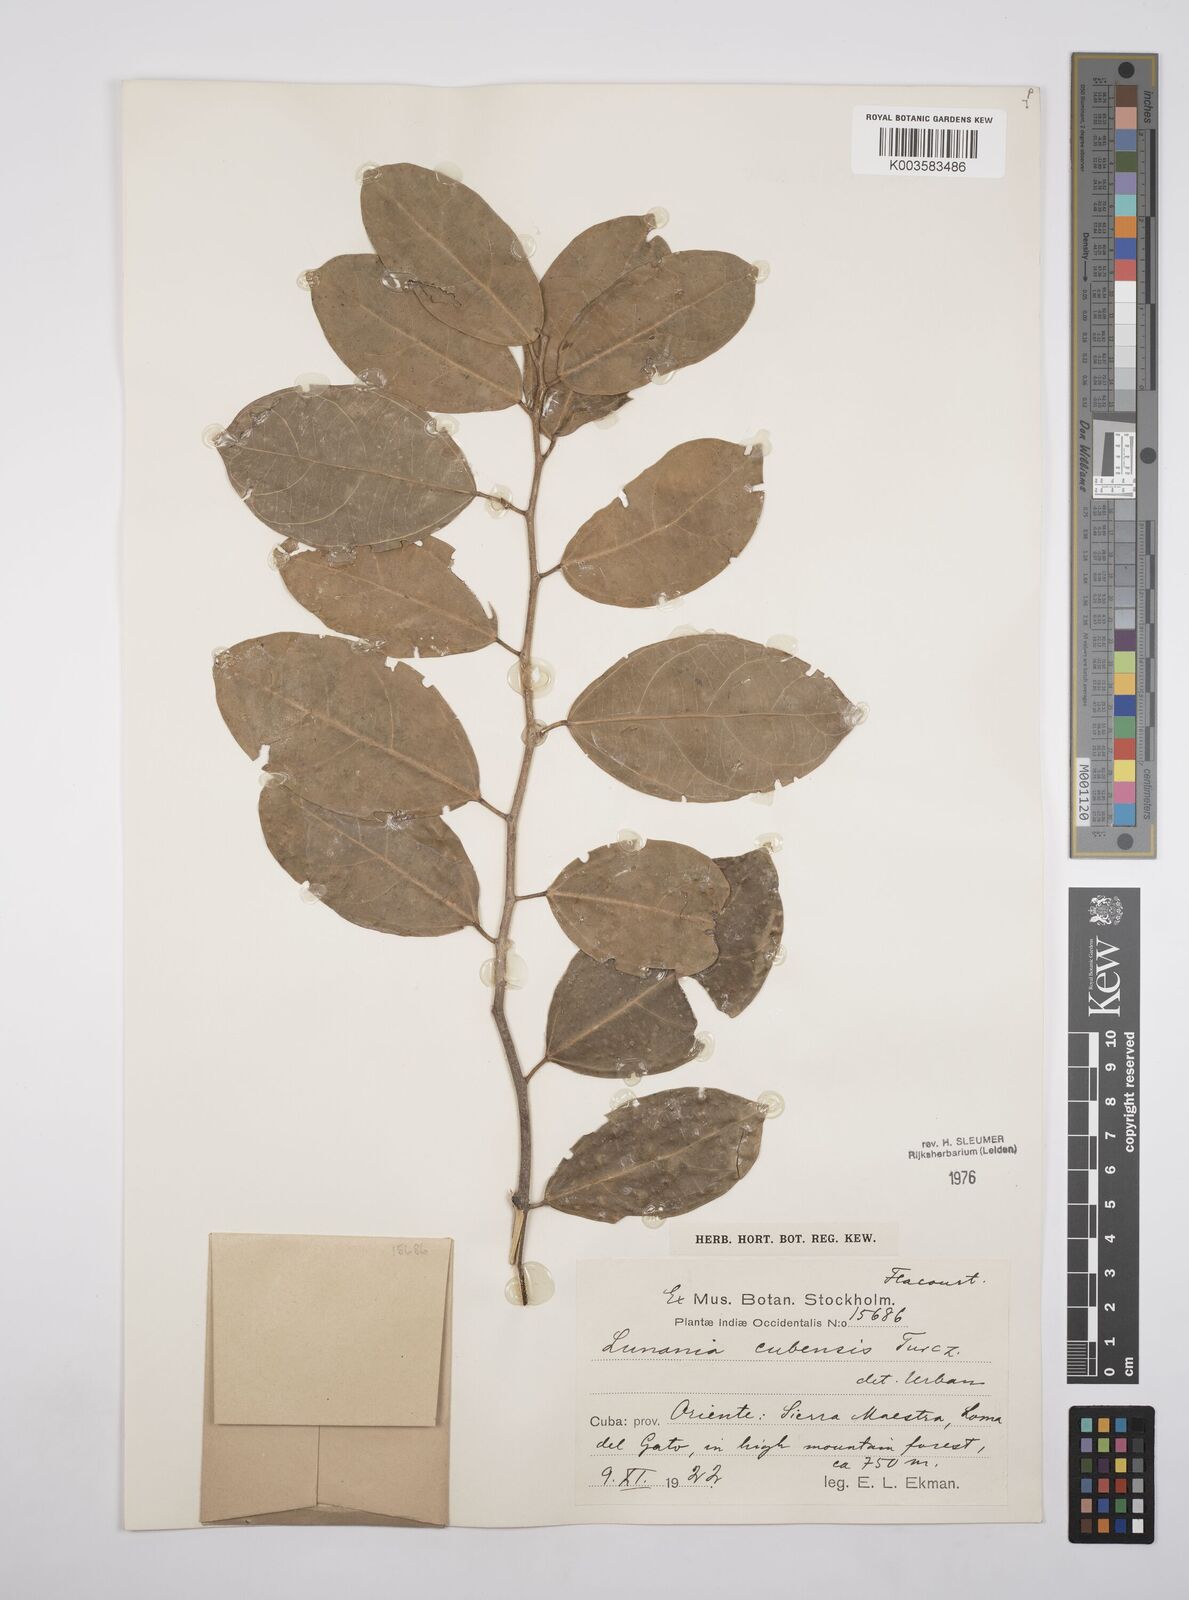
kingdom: Plantae
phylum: Tracheophyta
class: Magnoliopsida
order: Malpighiales
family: Salicaceae
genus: Lunania
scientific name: Lunania cubensis
